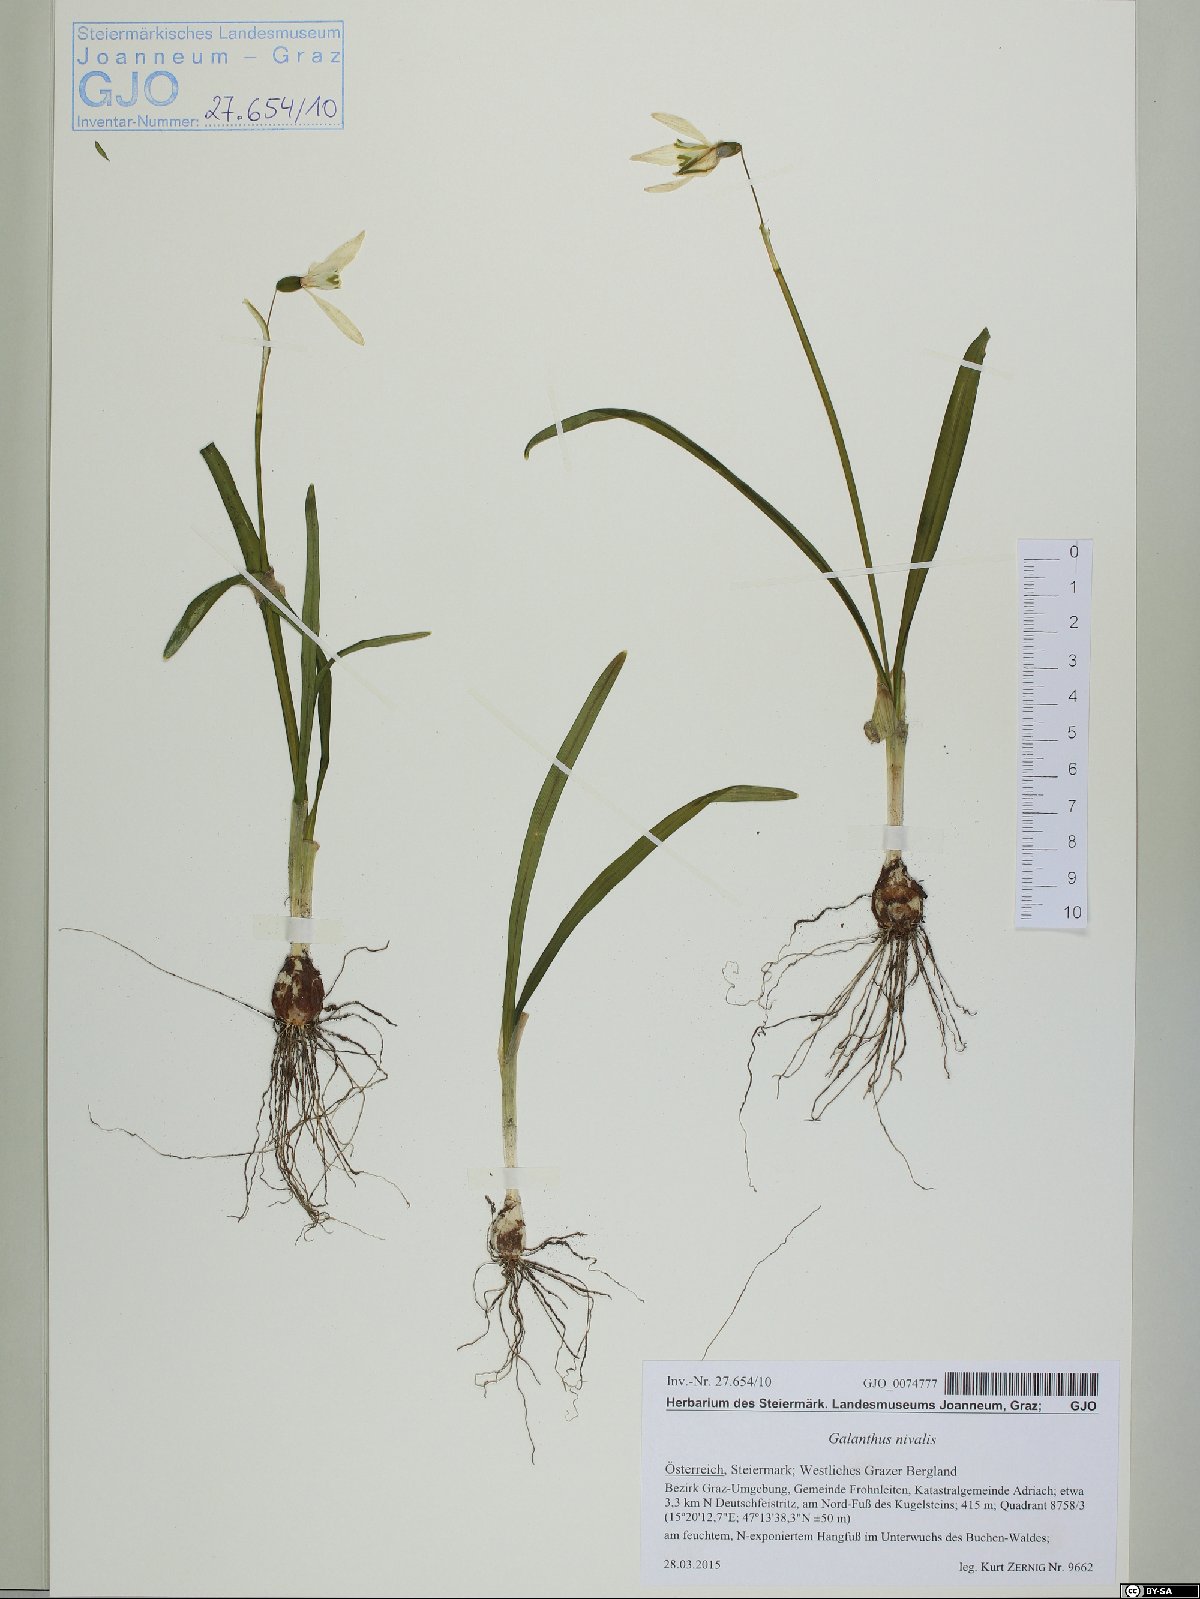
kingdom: Plantae
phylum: Tracheophyta
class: Liliopsida
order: Asparagales
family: Amaryllidaceae
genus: Galanthus
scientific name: Galanthus nivalis
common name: Snowdrop
